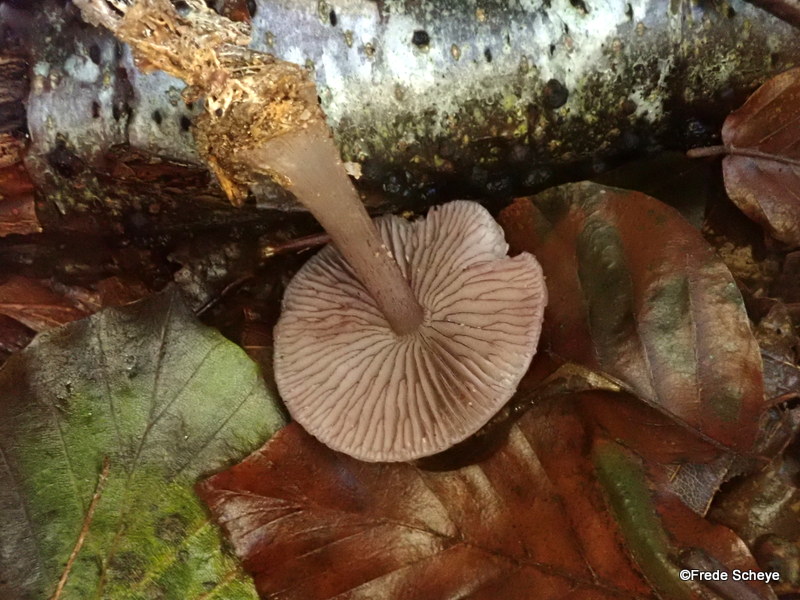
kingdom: Fungi
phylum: Basidiomycota
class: Agaricomycetes
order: Agaricales
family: Mycenaceae
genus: Mycena
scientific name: Mycena pelianthina
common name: mørkbladet huesvamp
